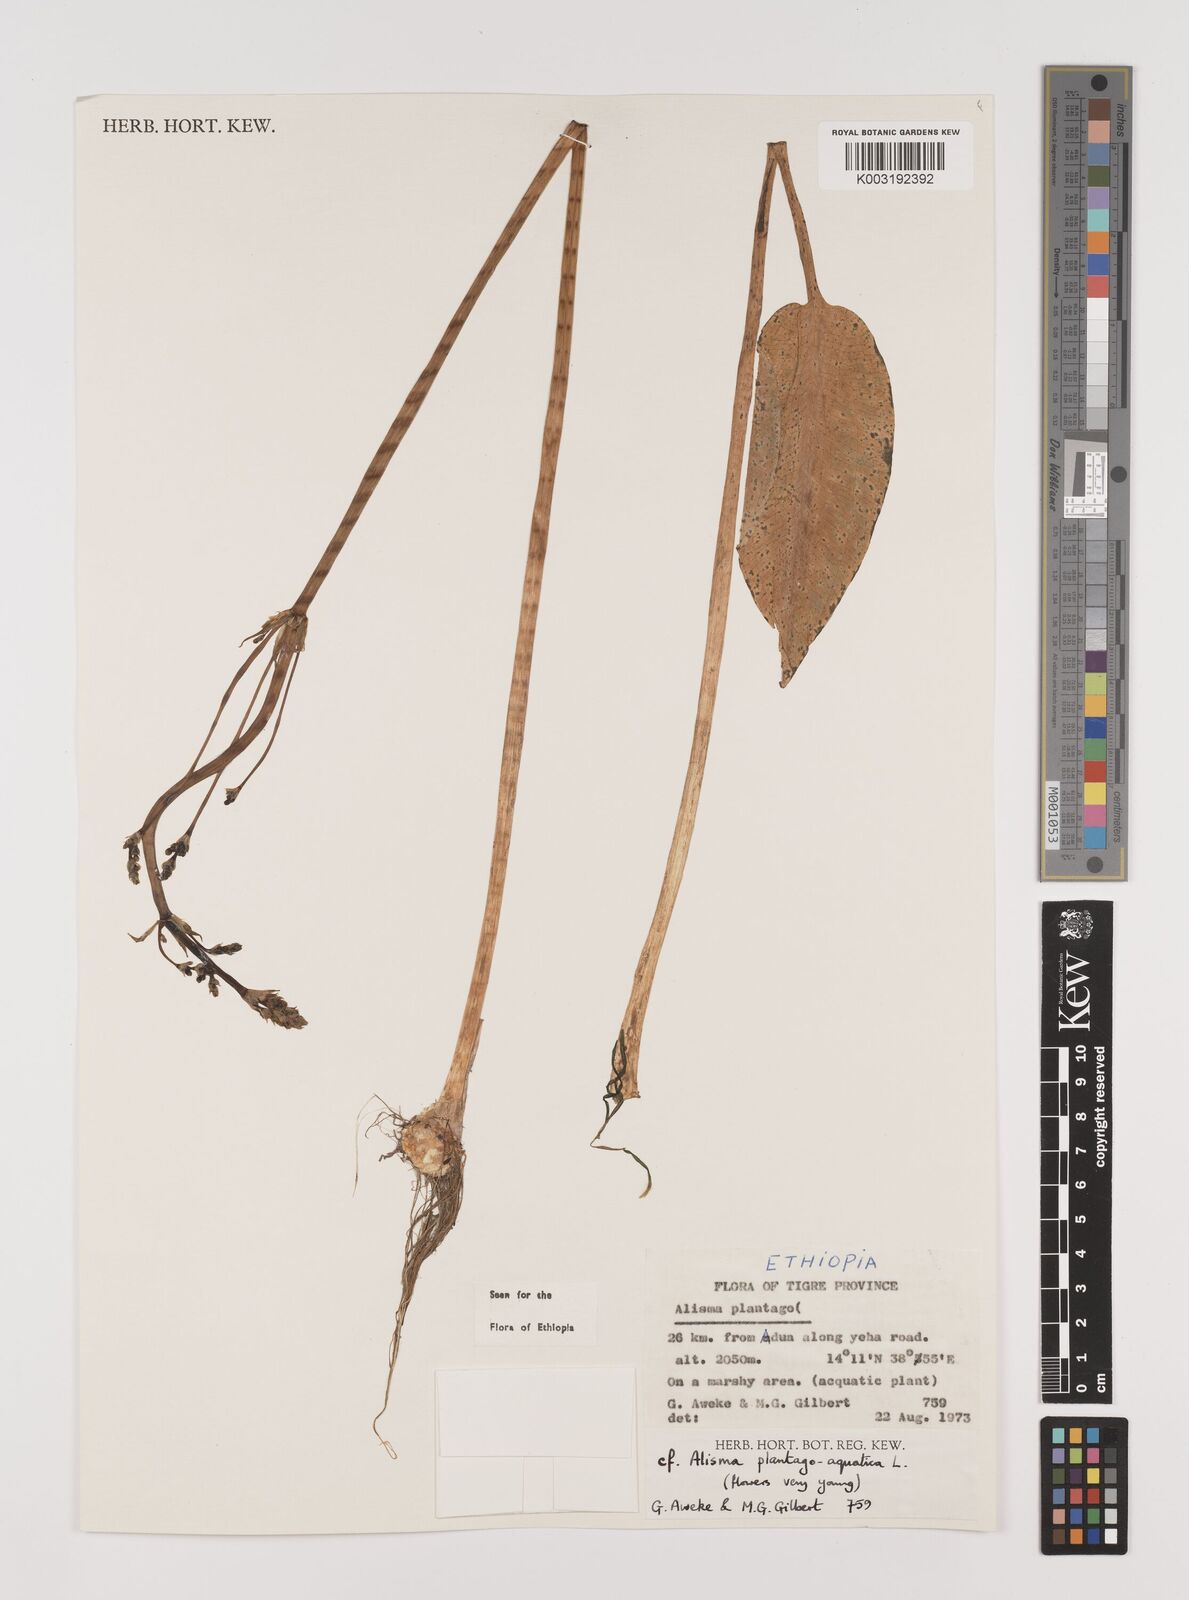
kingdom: Plantae
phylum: Tracheophyta
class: Liliopsida
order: Alismatales
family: Alismataceae
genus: Alisma
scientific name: Alisma plantago-aquatica
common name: Water-plantain
